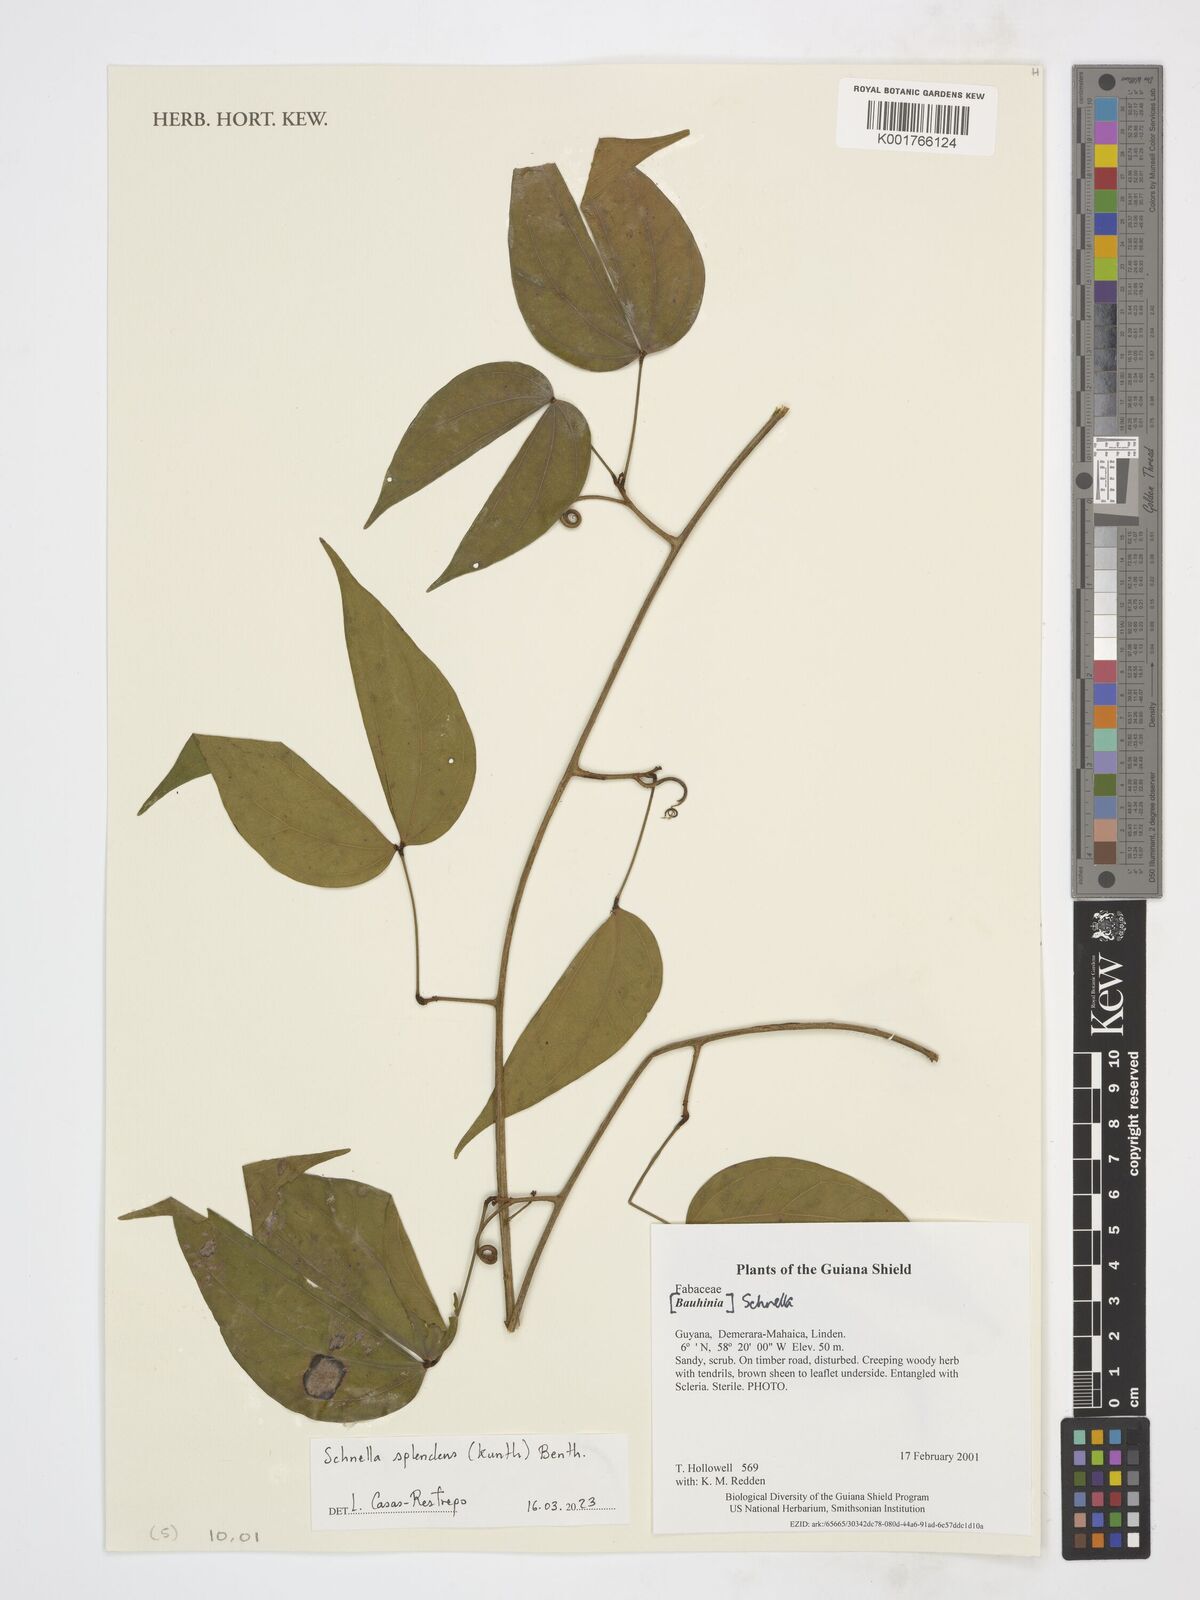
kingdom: Plantae
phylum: Tracheophyta
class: Magnoliopsida
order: Fabales
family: Fabaceae
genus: Schnella
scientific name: Schnella splendens
